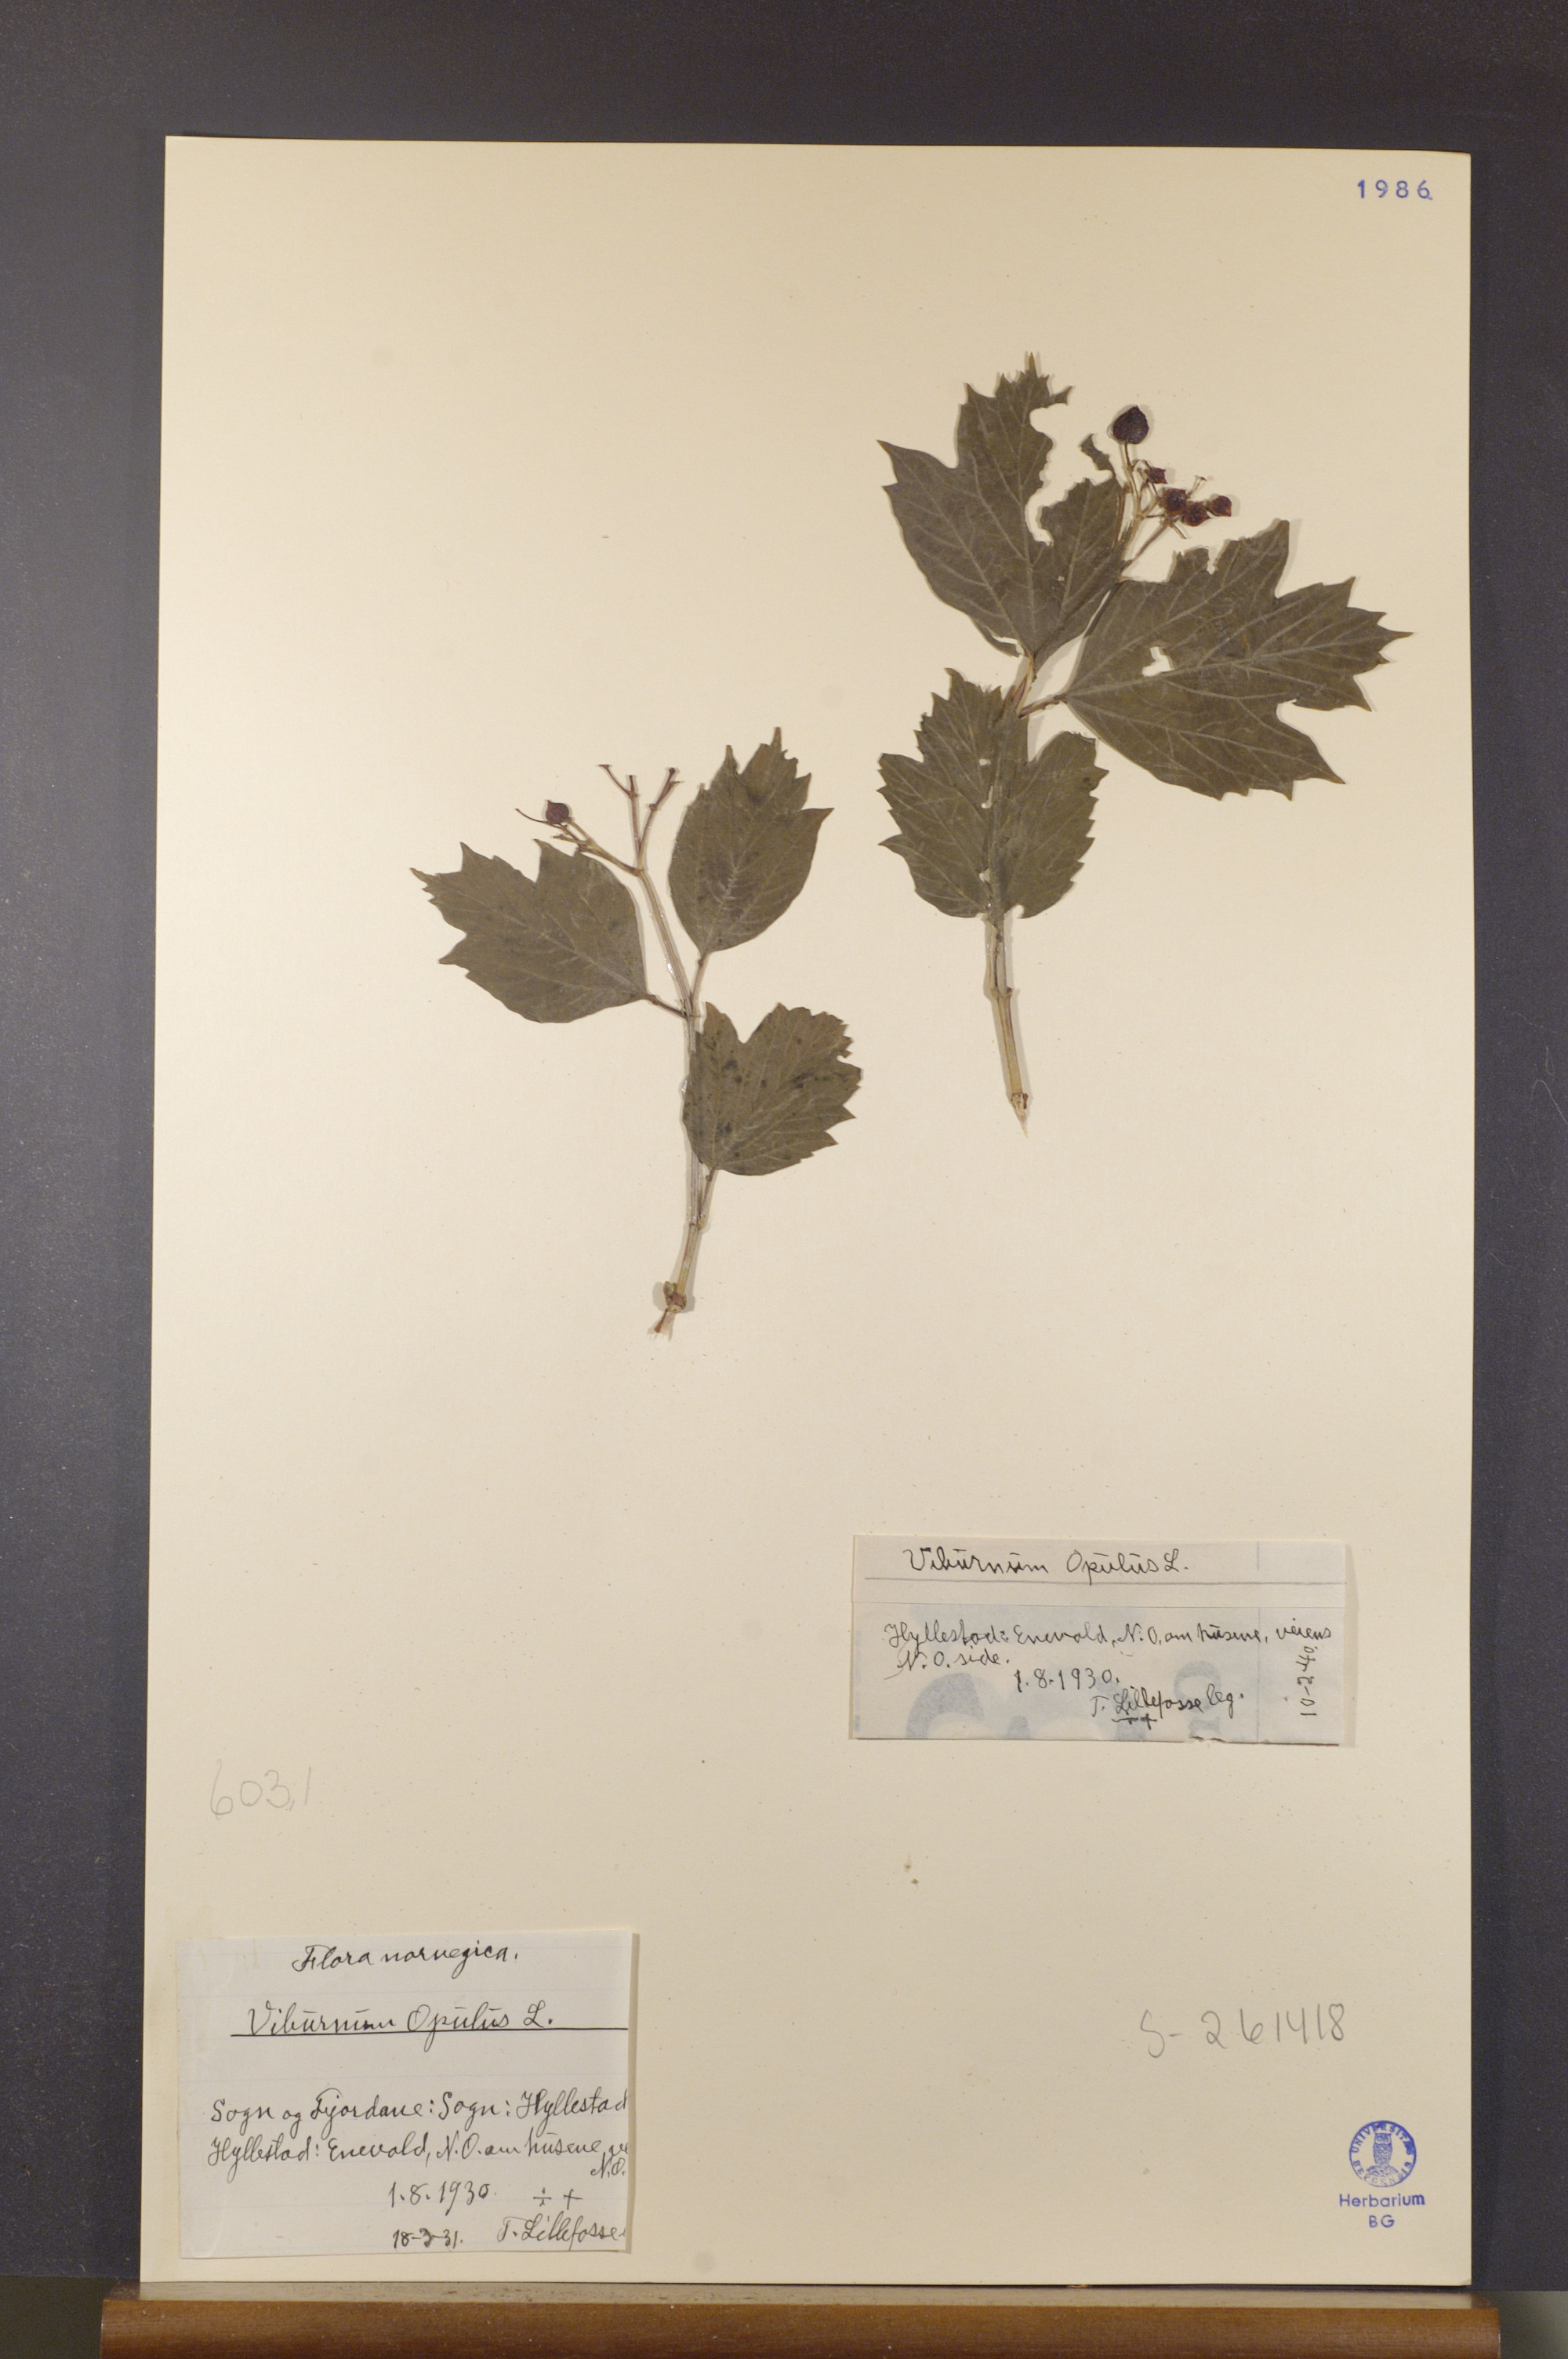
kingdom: Plantae
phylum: Tracheophyta
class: Magnoliopsida
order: Dipsacales
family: Viburnaceae
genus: Viburnum
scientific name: Viburnum opulus
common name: Guelder-rose
